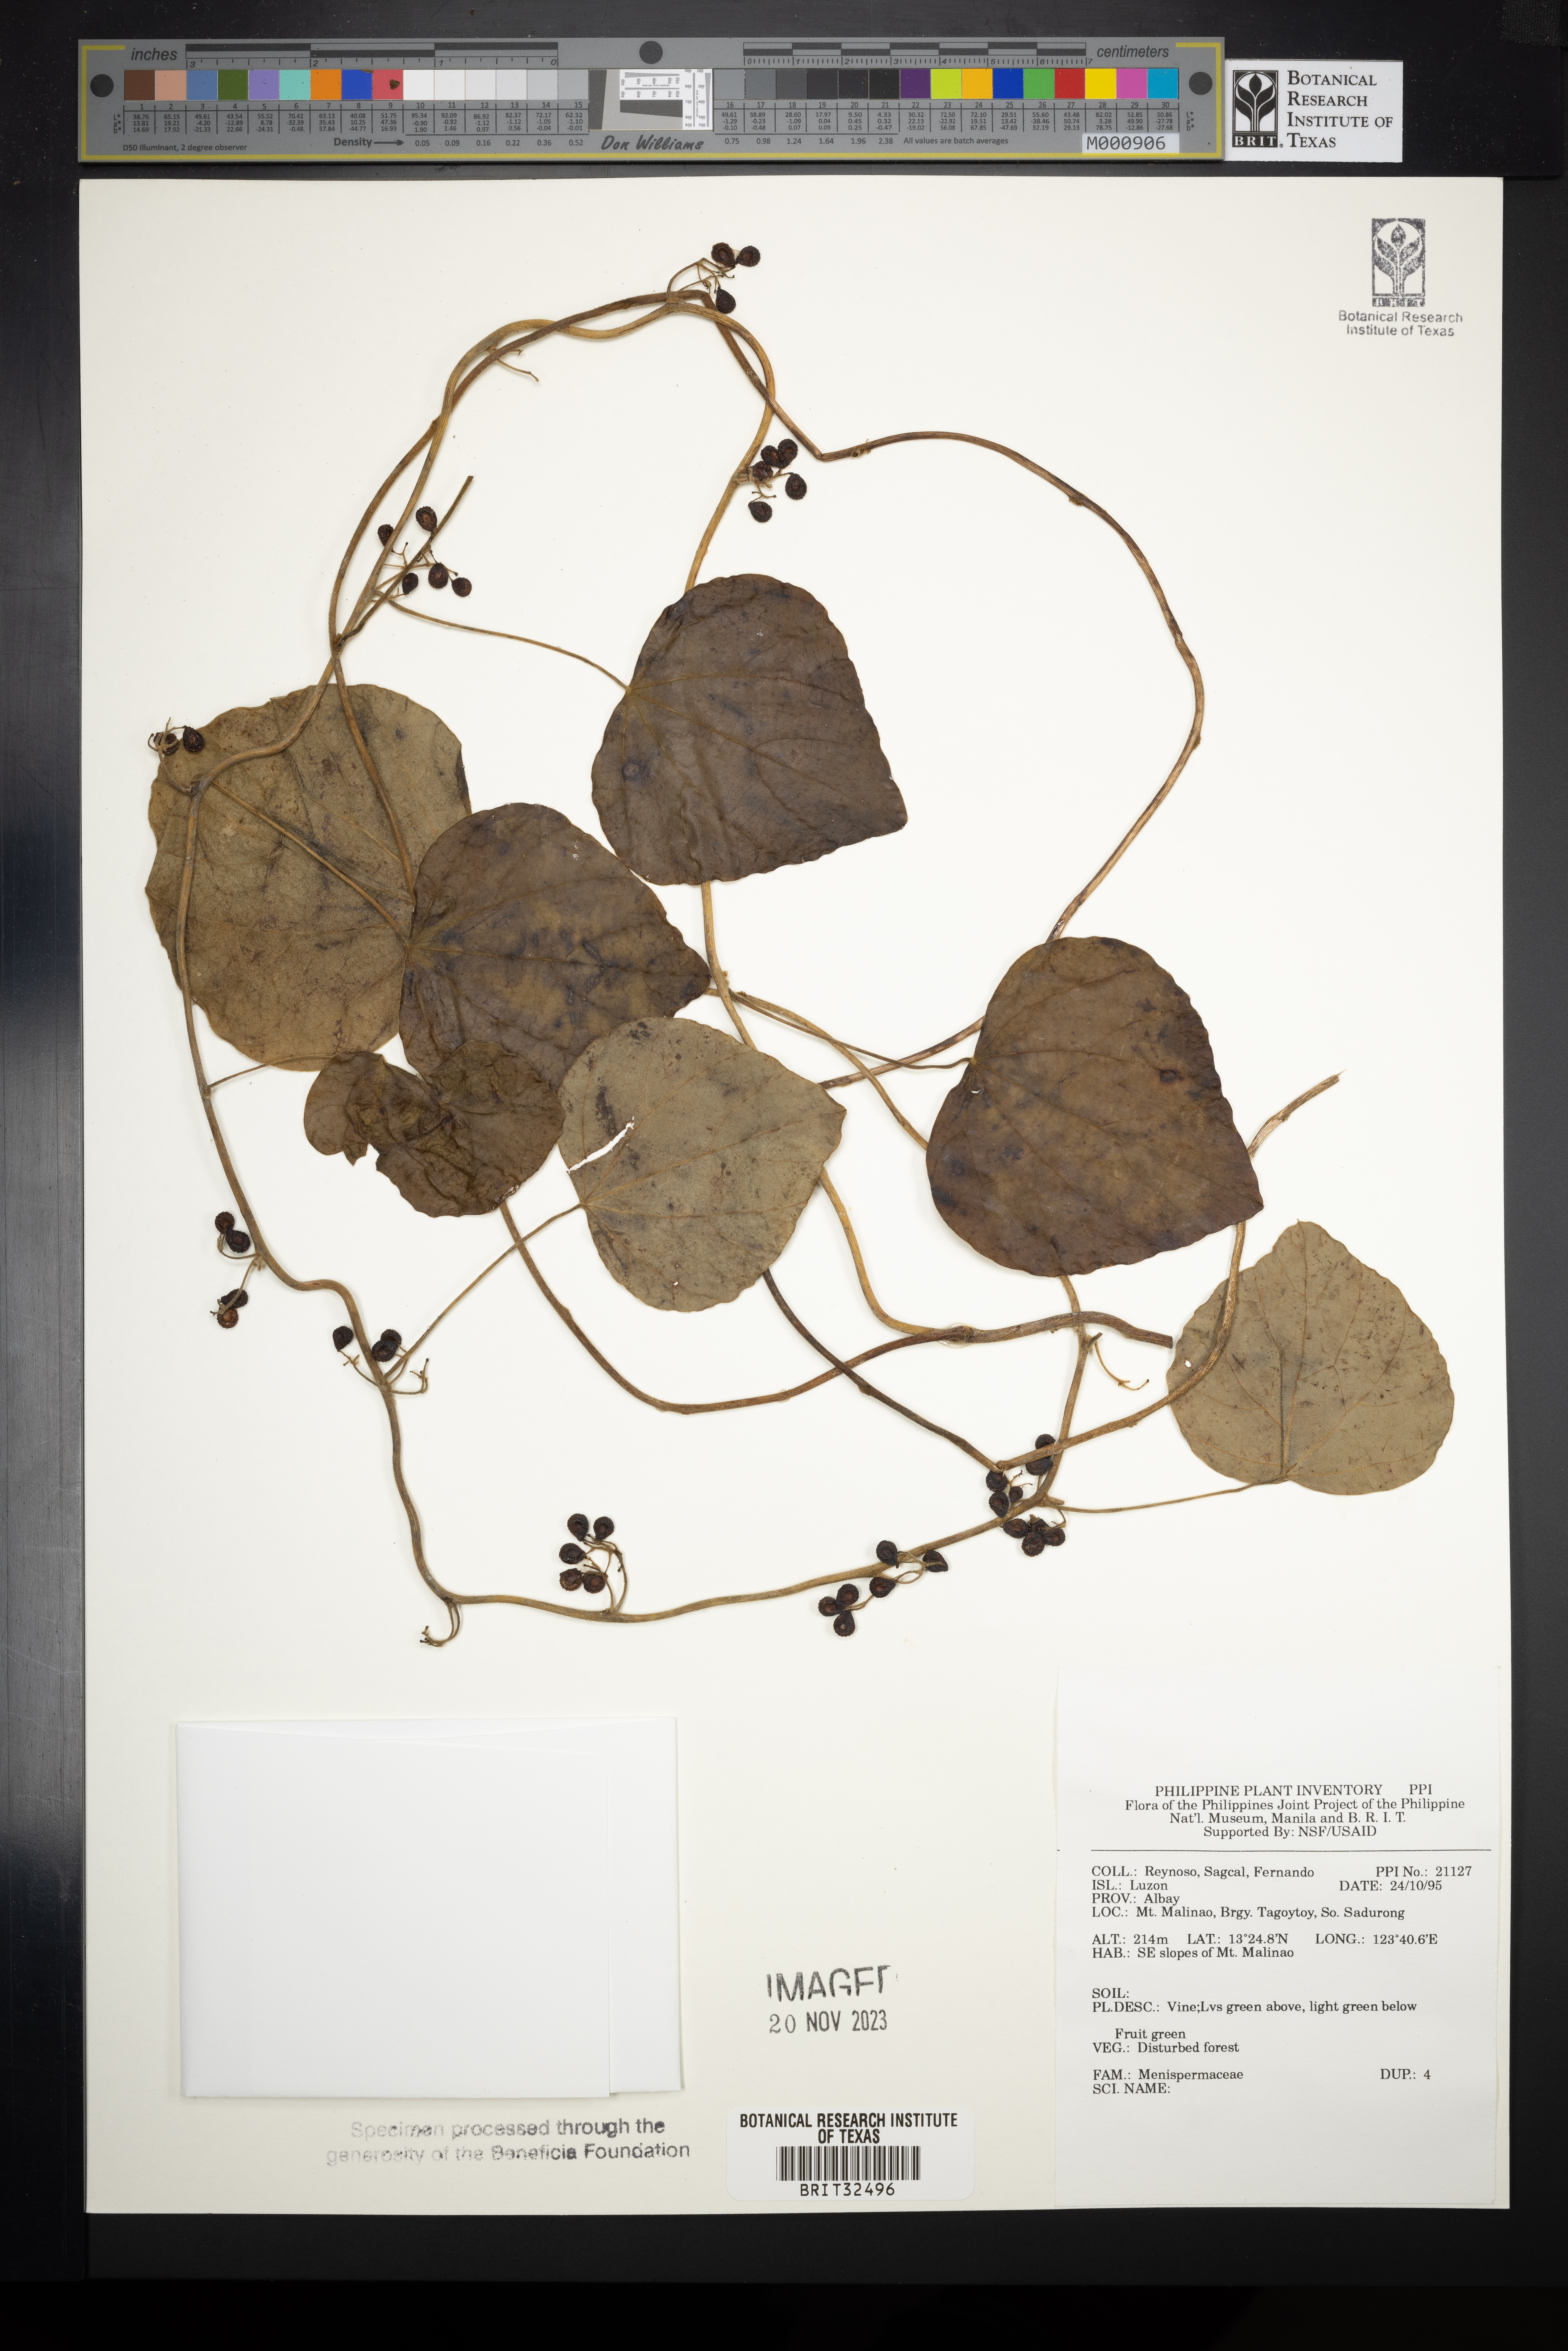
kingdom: Plantae
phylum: Tracheophyta
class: Magnoliopsida
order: Ranunculales
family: Menispermaceae
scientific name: Menispermaceae
